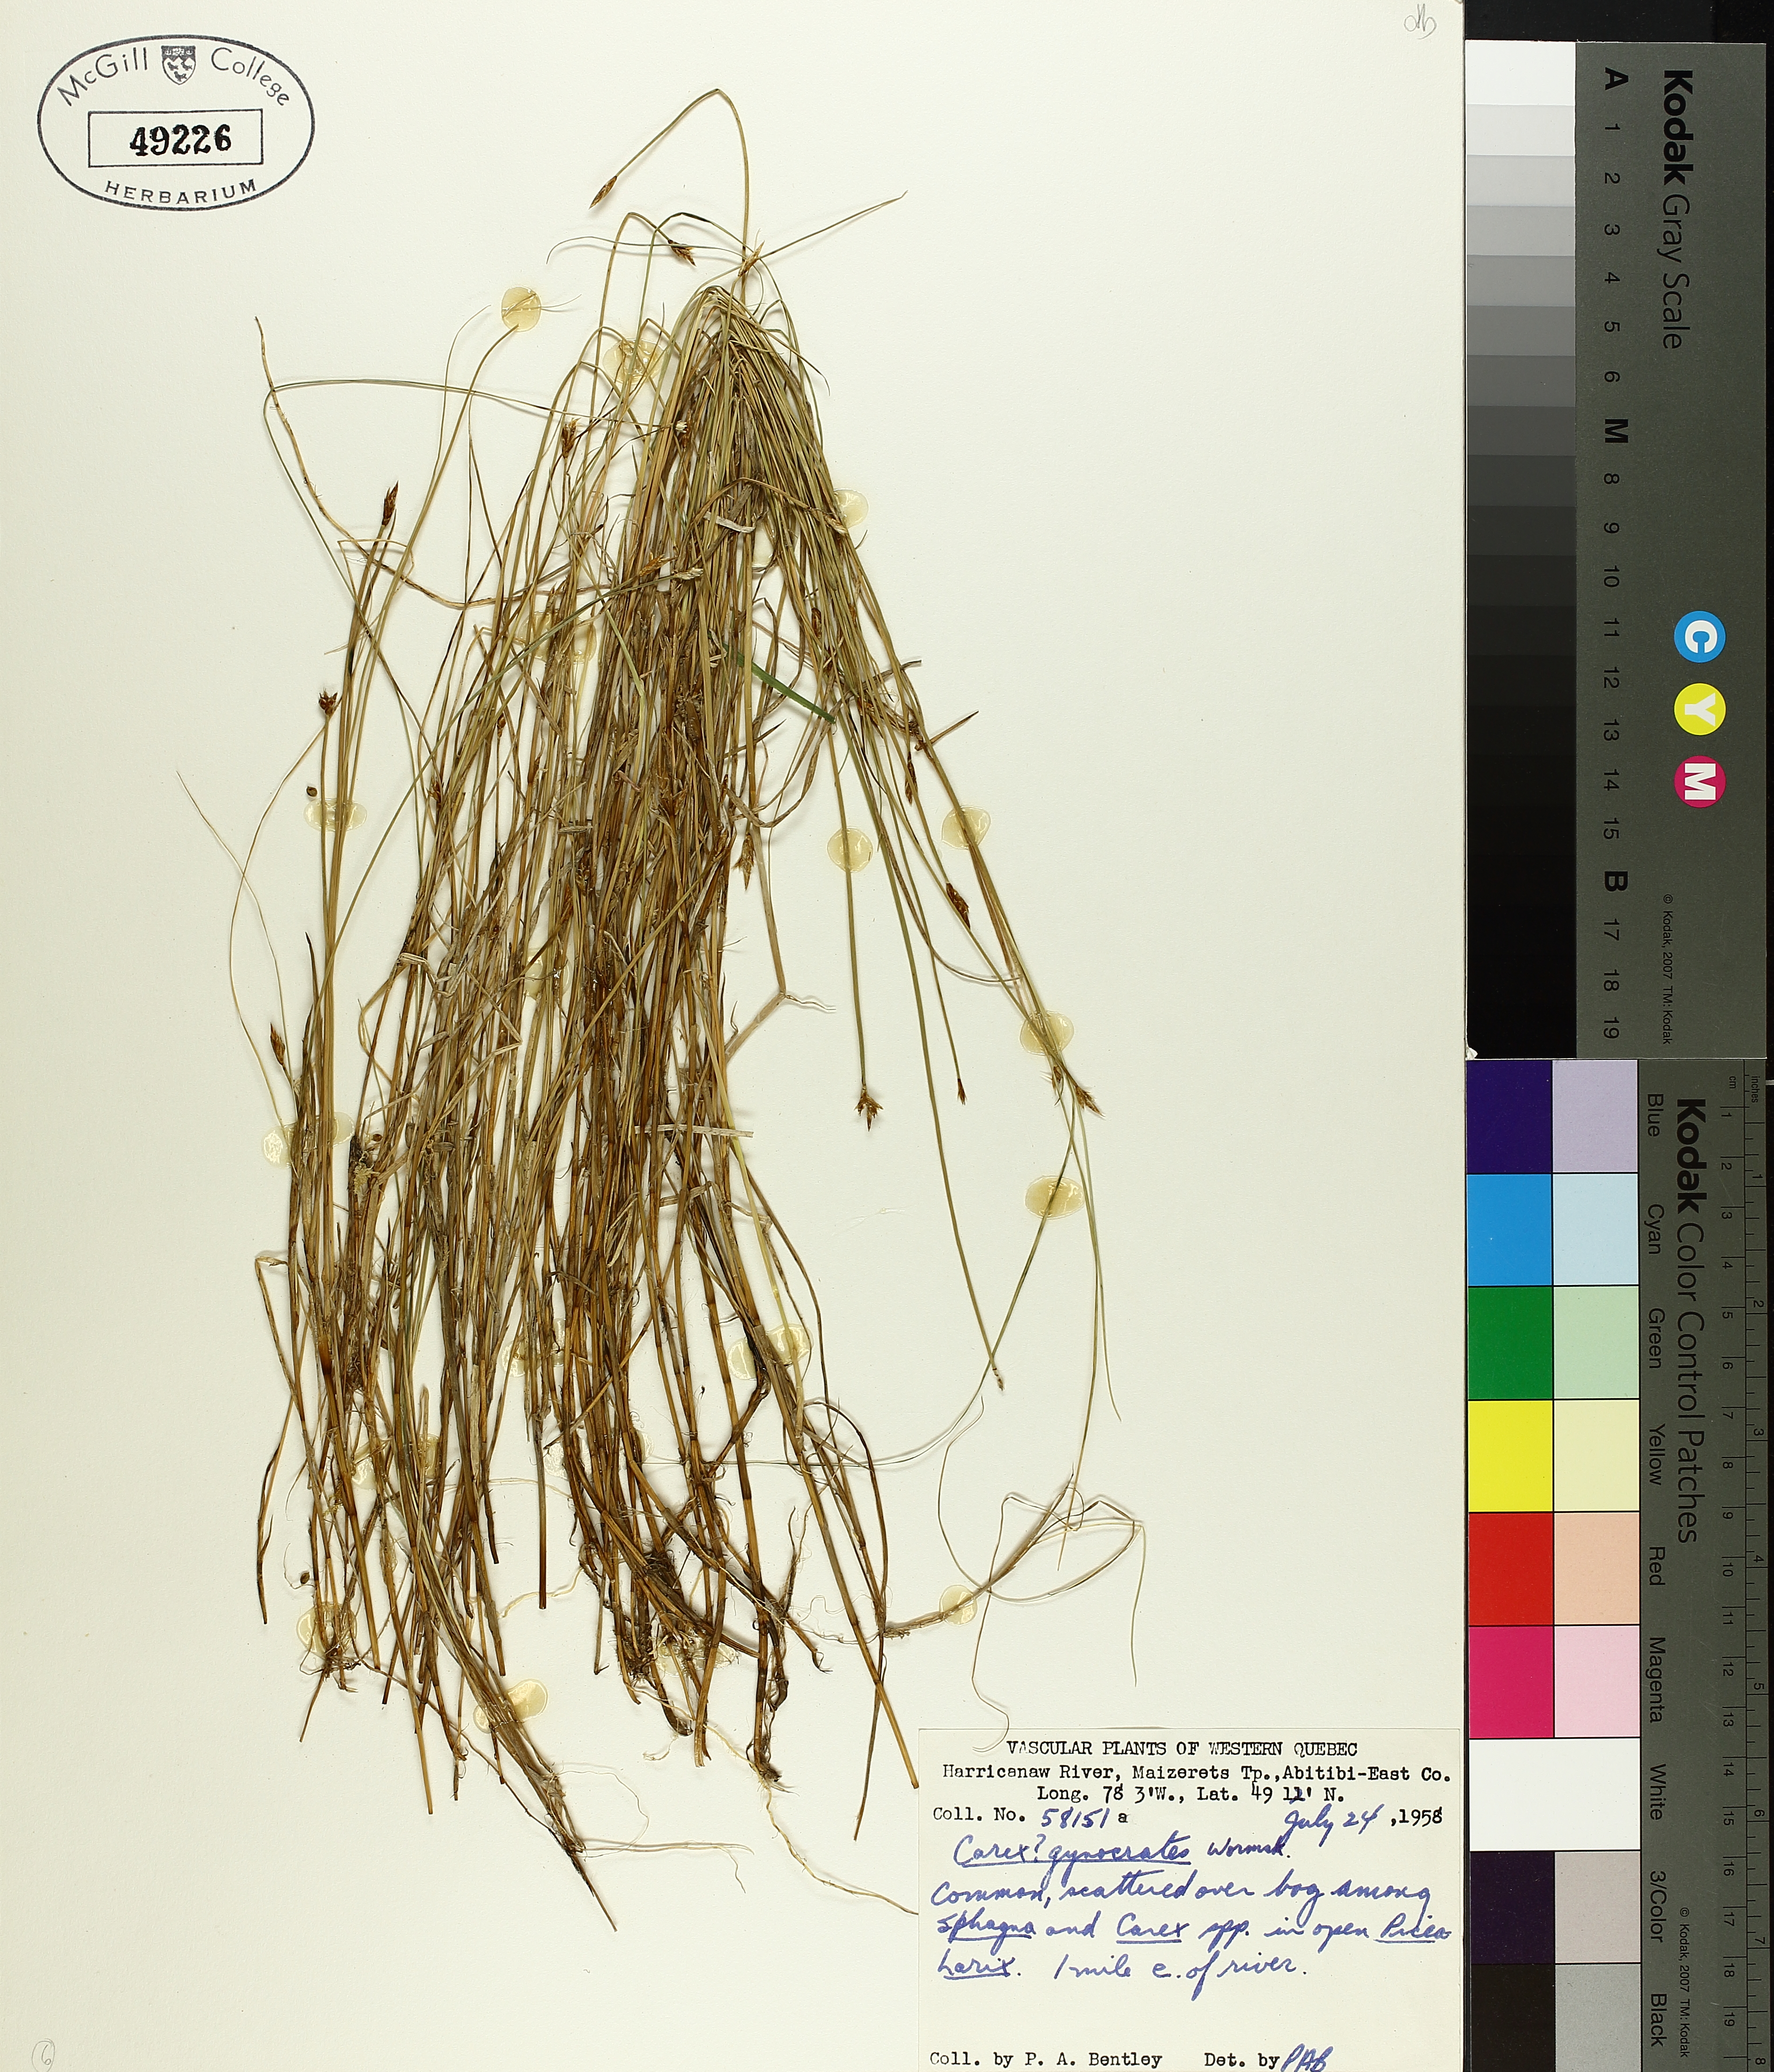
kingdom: Plantae
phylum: Tracheophyta
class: Liliopsida
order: Poales
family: Cyperaceae
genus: Carex
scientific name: Carex gynocrates
